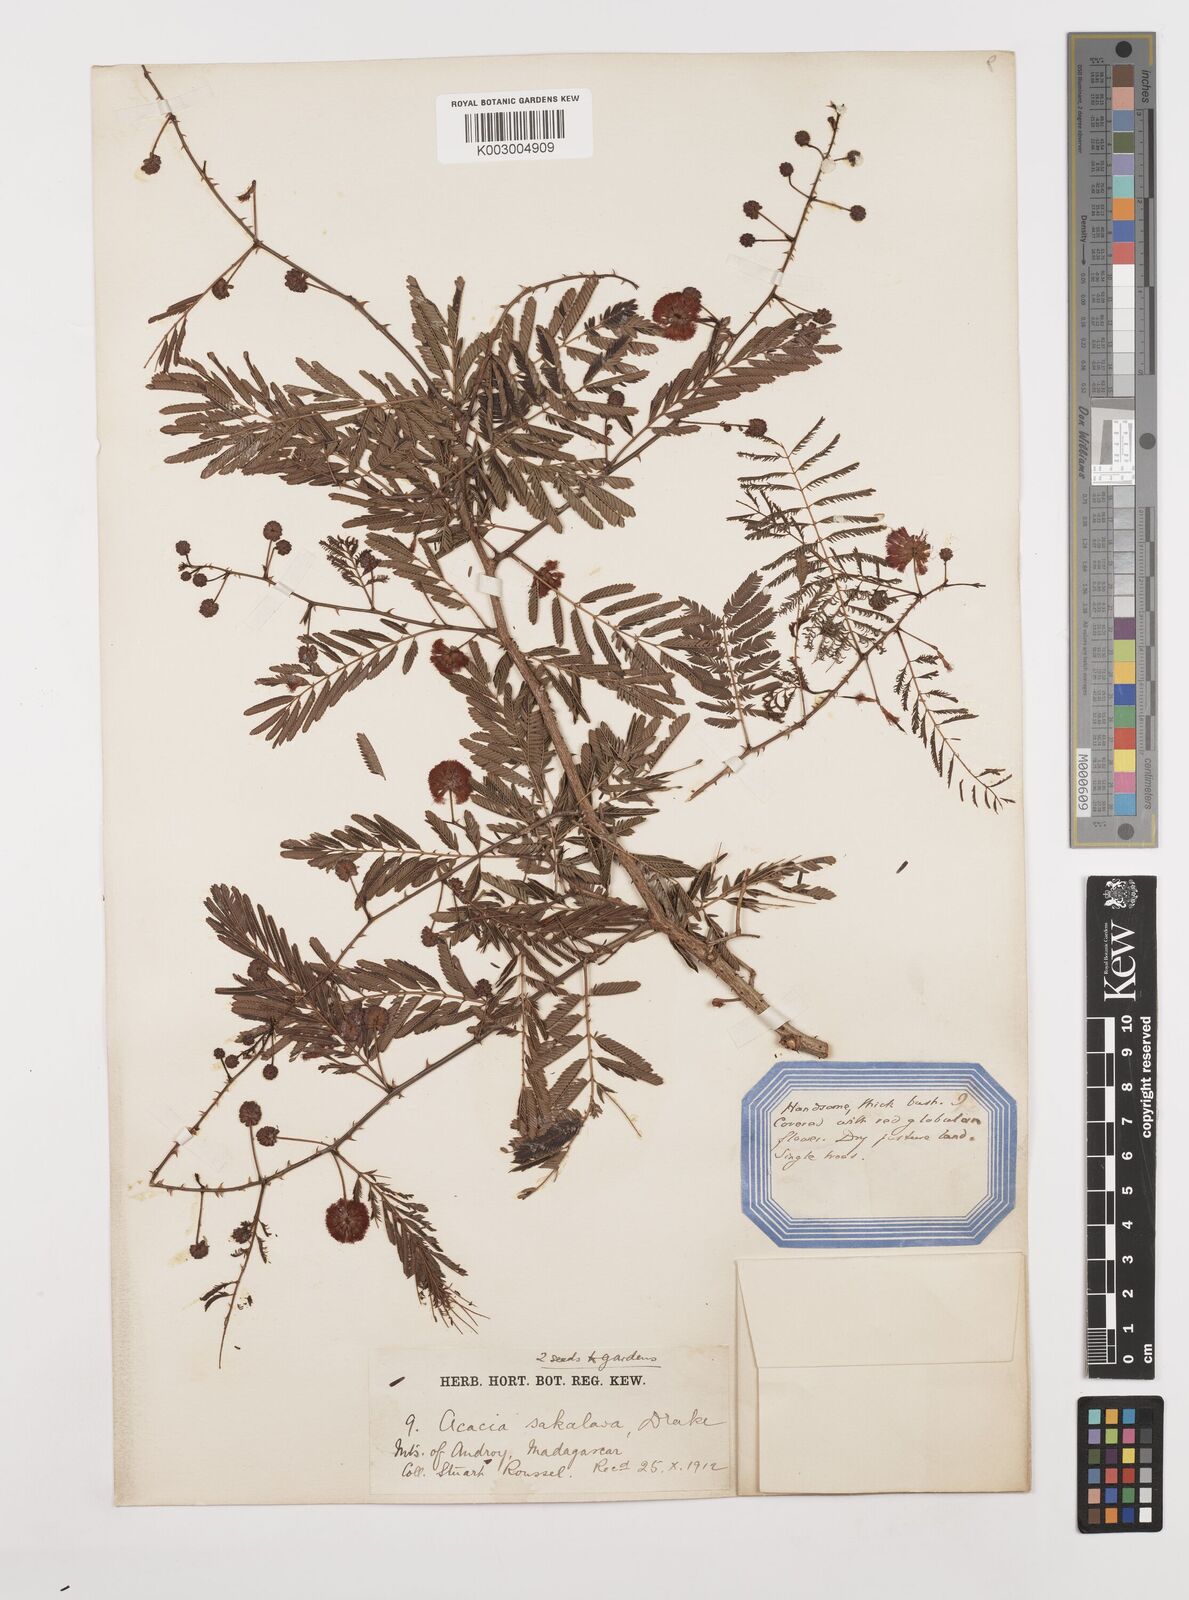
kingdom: Plantae
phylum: Tracheophyta
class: Magnoliopsida
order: Fabales
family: Fabaceae
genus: Senegalia
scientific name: Senegalia sakalava
